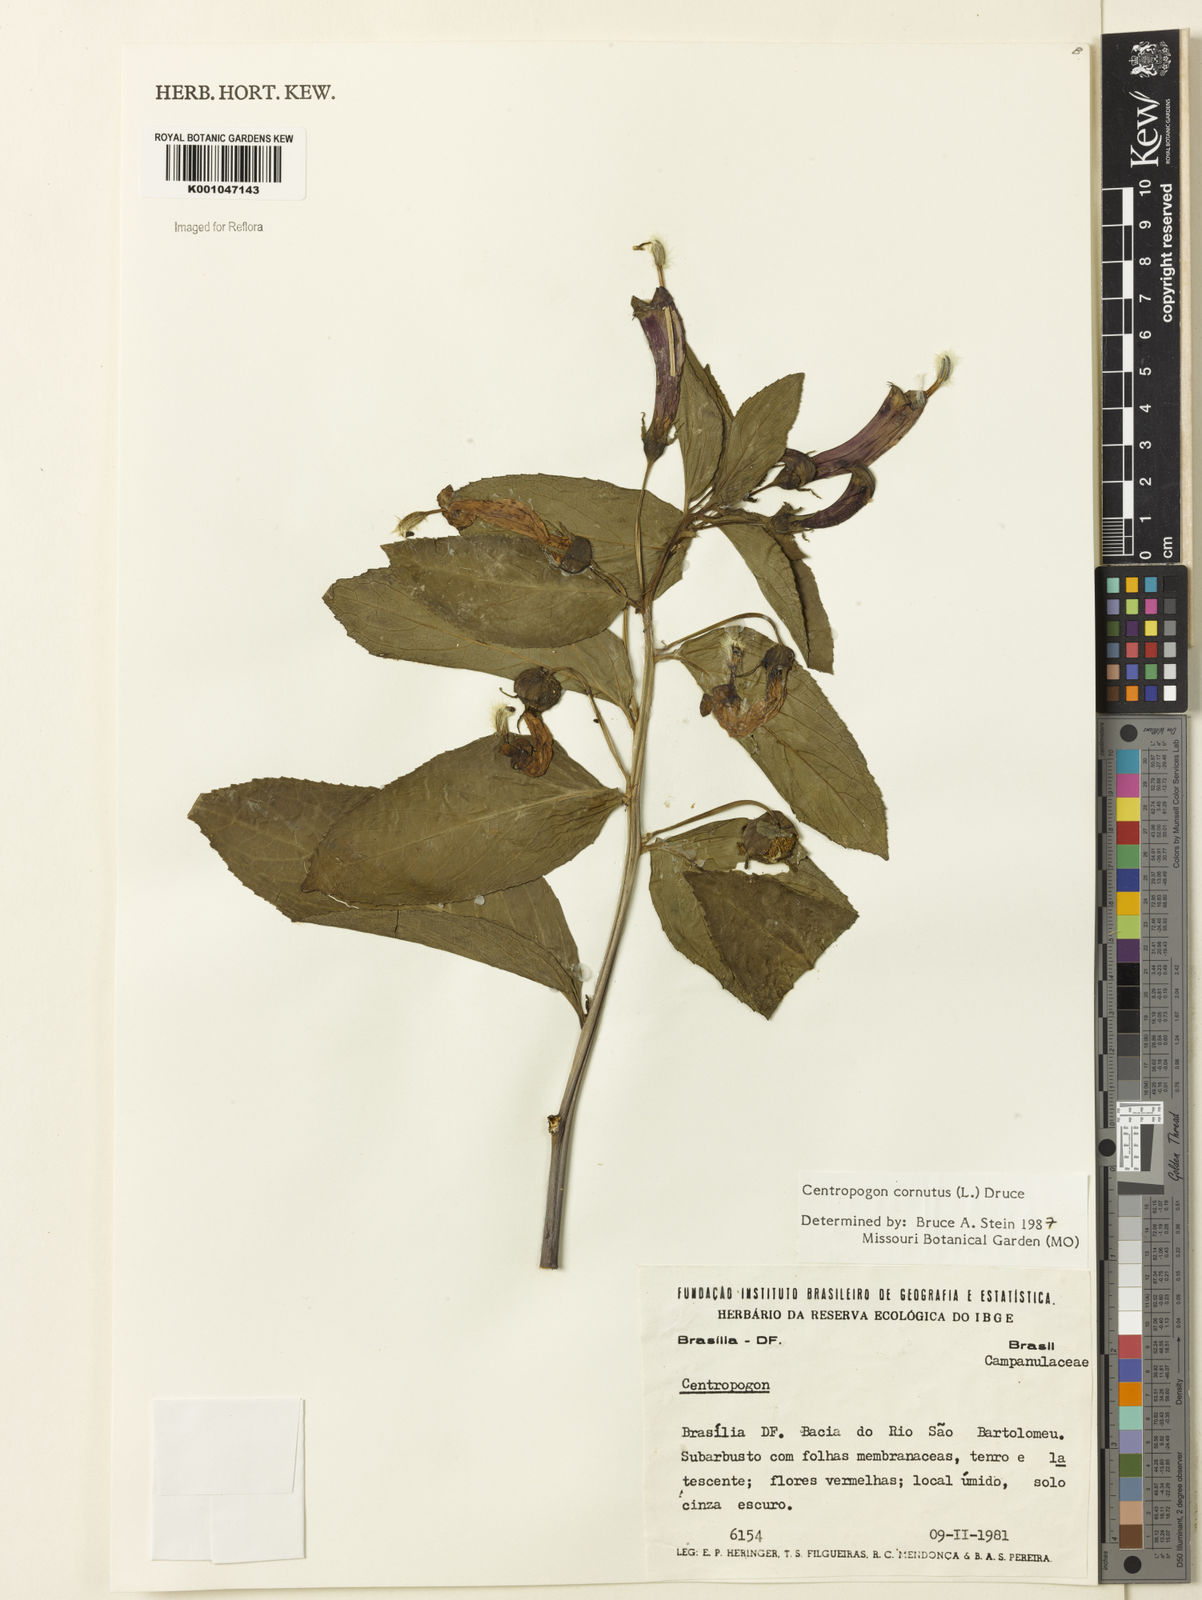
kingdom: Plantae
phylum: Tracheophyta
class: Magnoliopsida
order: Asterales
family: Campanulaceae
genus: Centropogon
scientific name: Centropogon cornutus
